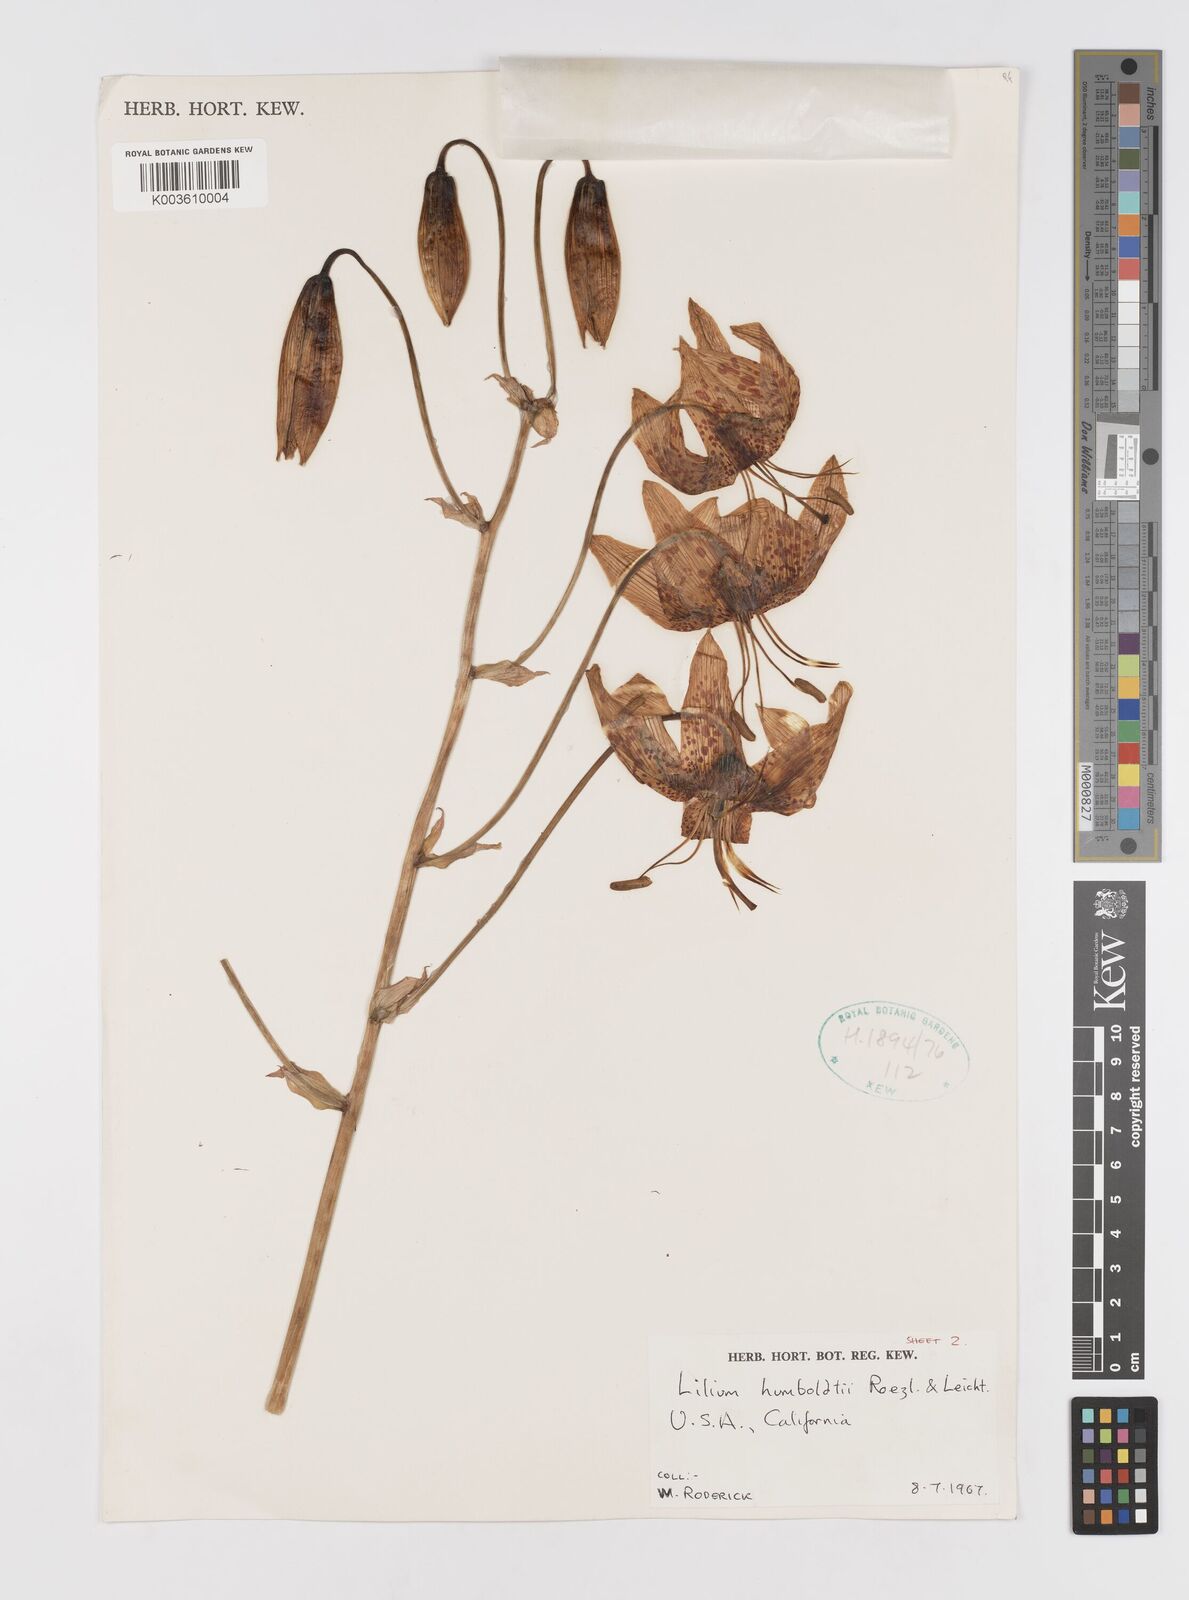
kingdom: Plantae
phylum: Tracheophyta
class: Liliopsida
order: Liliales
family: Liliaceae
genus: Lilium
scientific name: Lilium humboldtii
